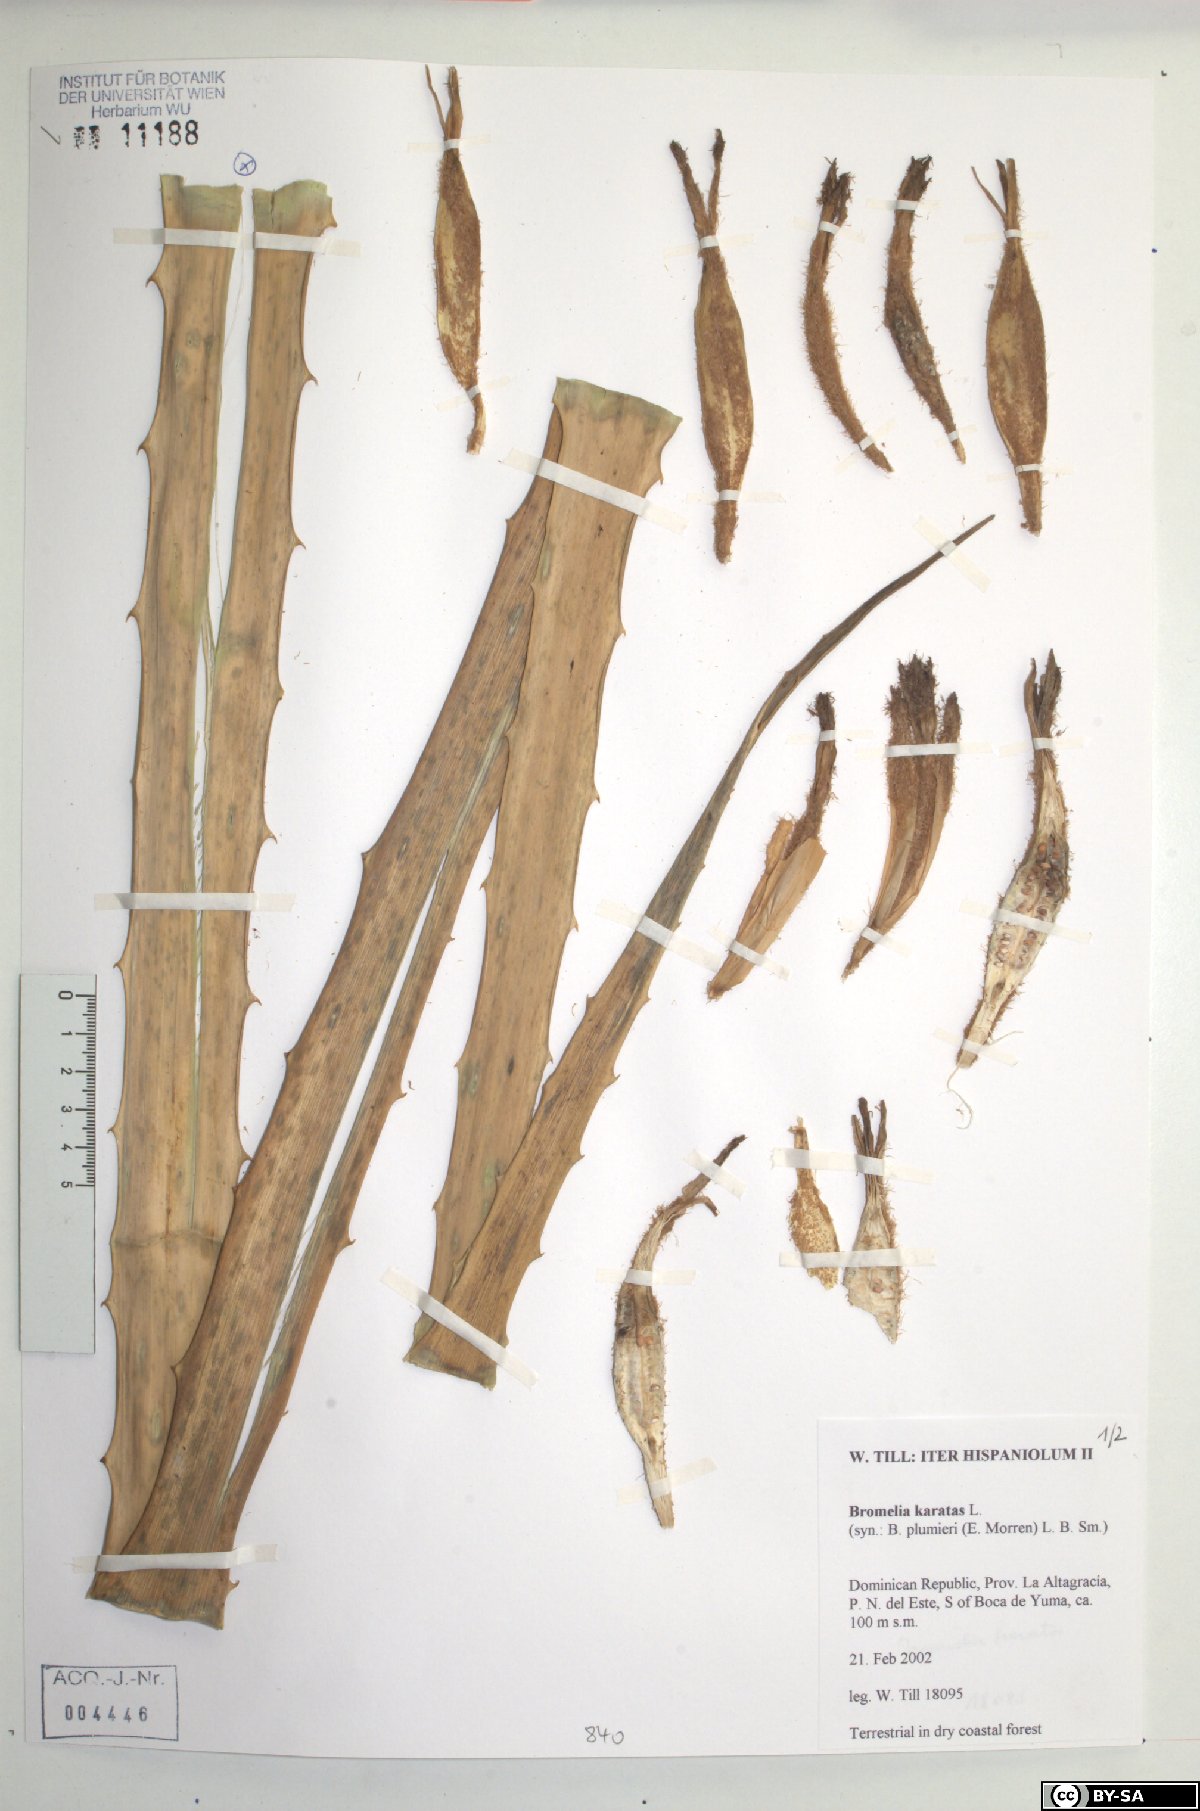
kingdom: Plantae
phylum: Tracheophyta
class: Liliopsida
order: Poales
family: Bromeliaceae
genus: Bromelia
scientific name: Bromelia karatas
